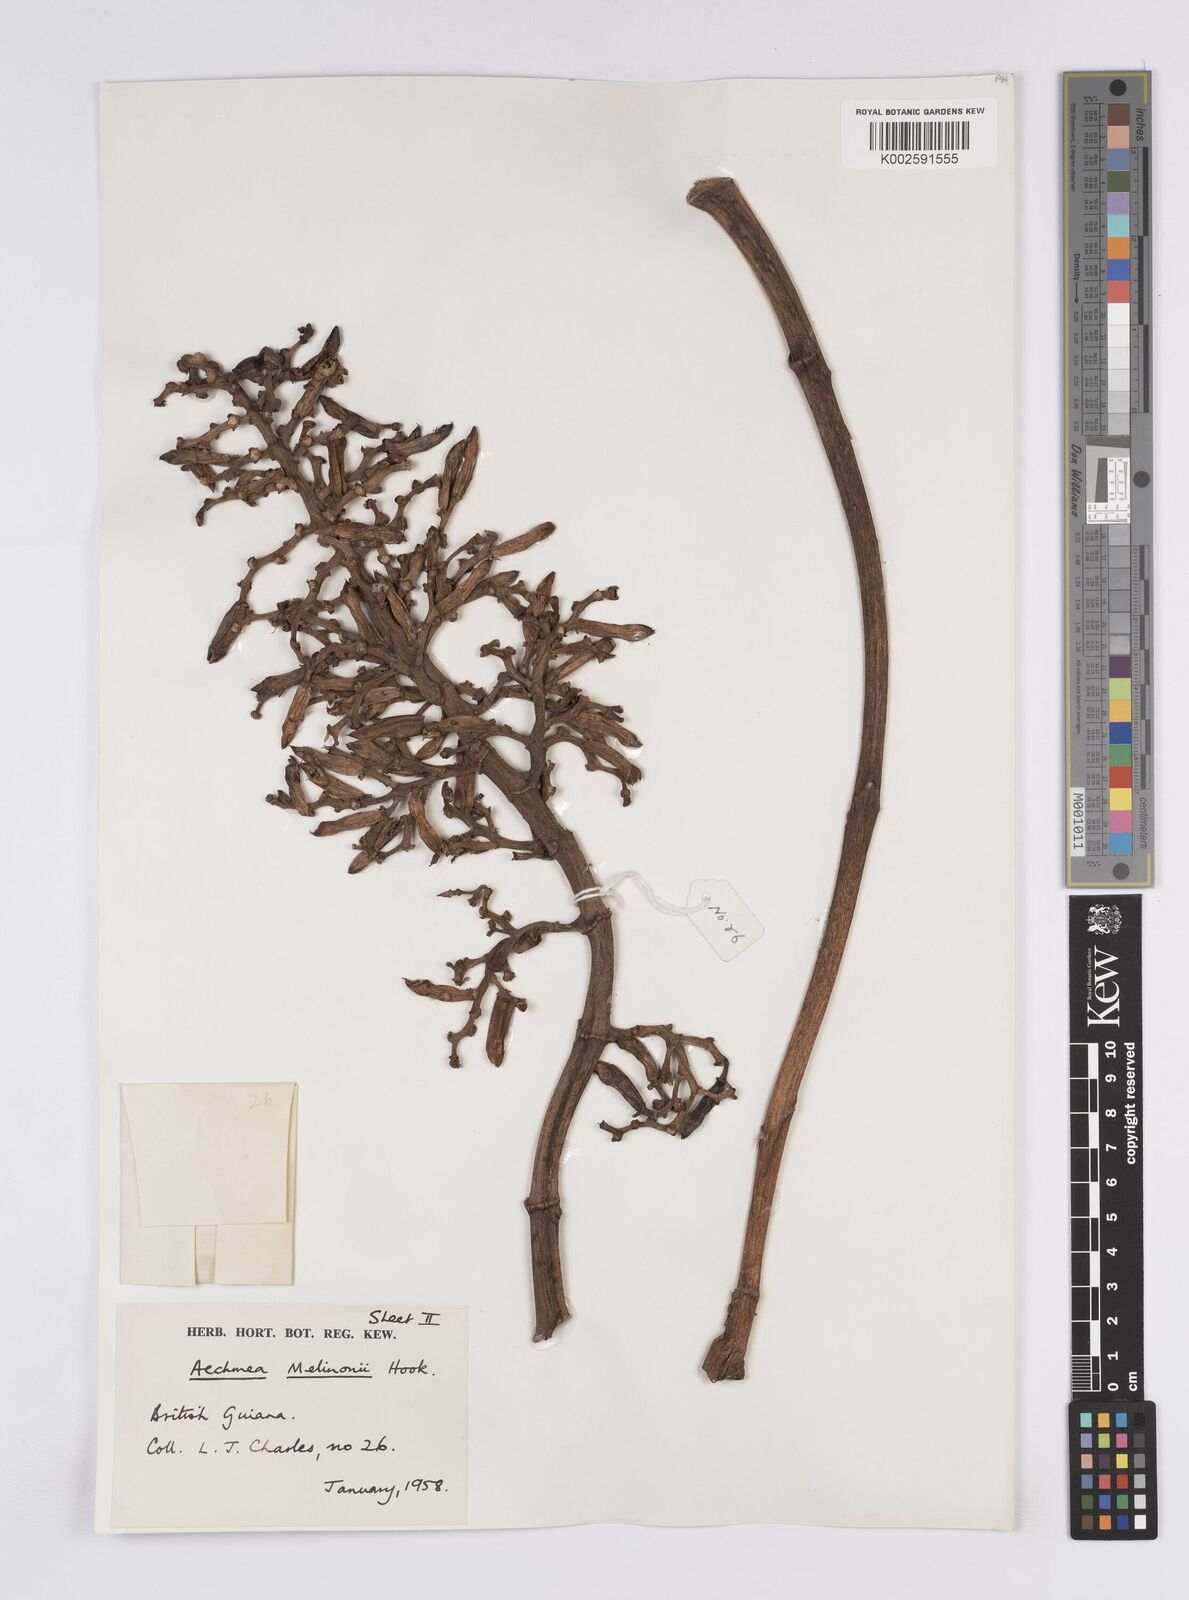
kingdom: Plantae
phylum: Tracheophyta
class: Liliopsida
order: Poales
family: Bromeliaceae
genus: Aechmea
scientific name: Aechmea melinonii
